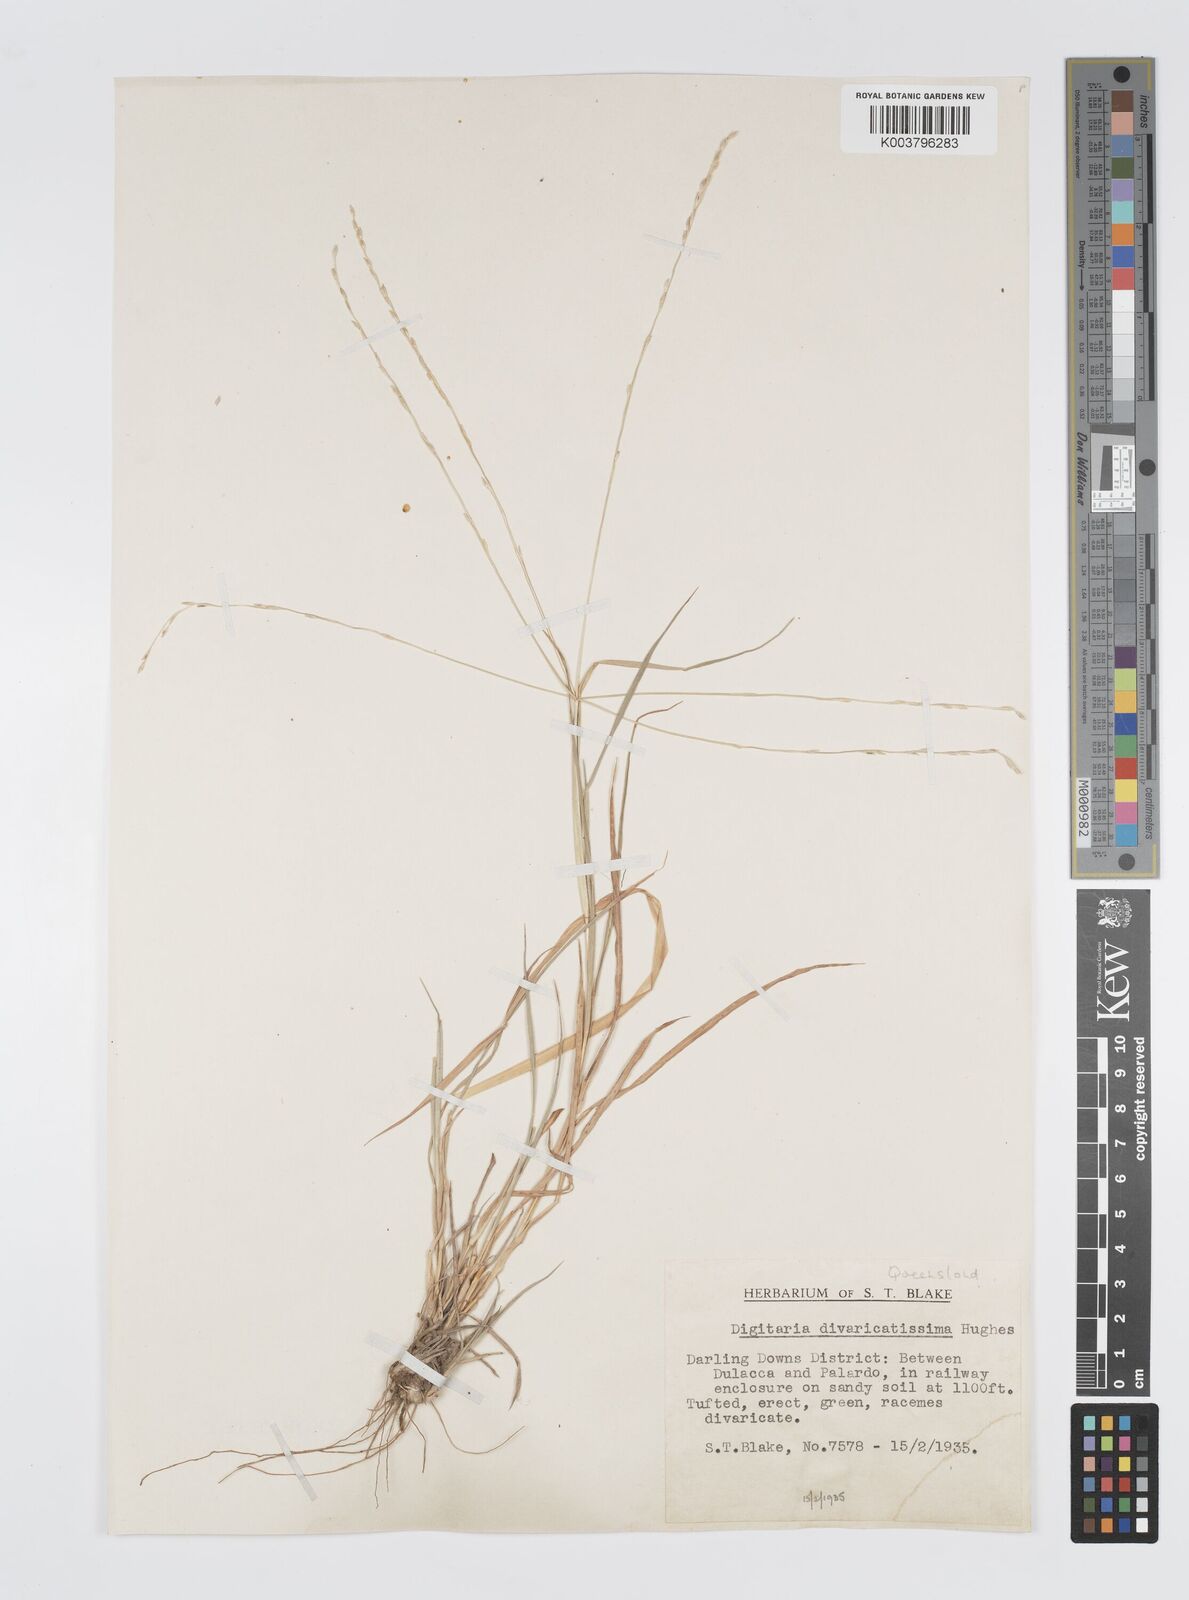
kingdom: Plantae
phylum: Tracheophyta
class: Liliopsida
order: Poales
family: Poaceae
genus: Digitaria
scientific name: Digitaria divaricatissima
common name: Crabgrass
